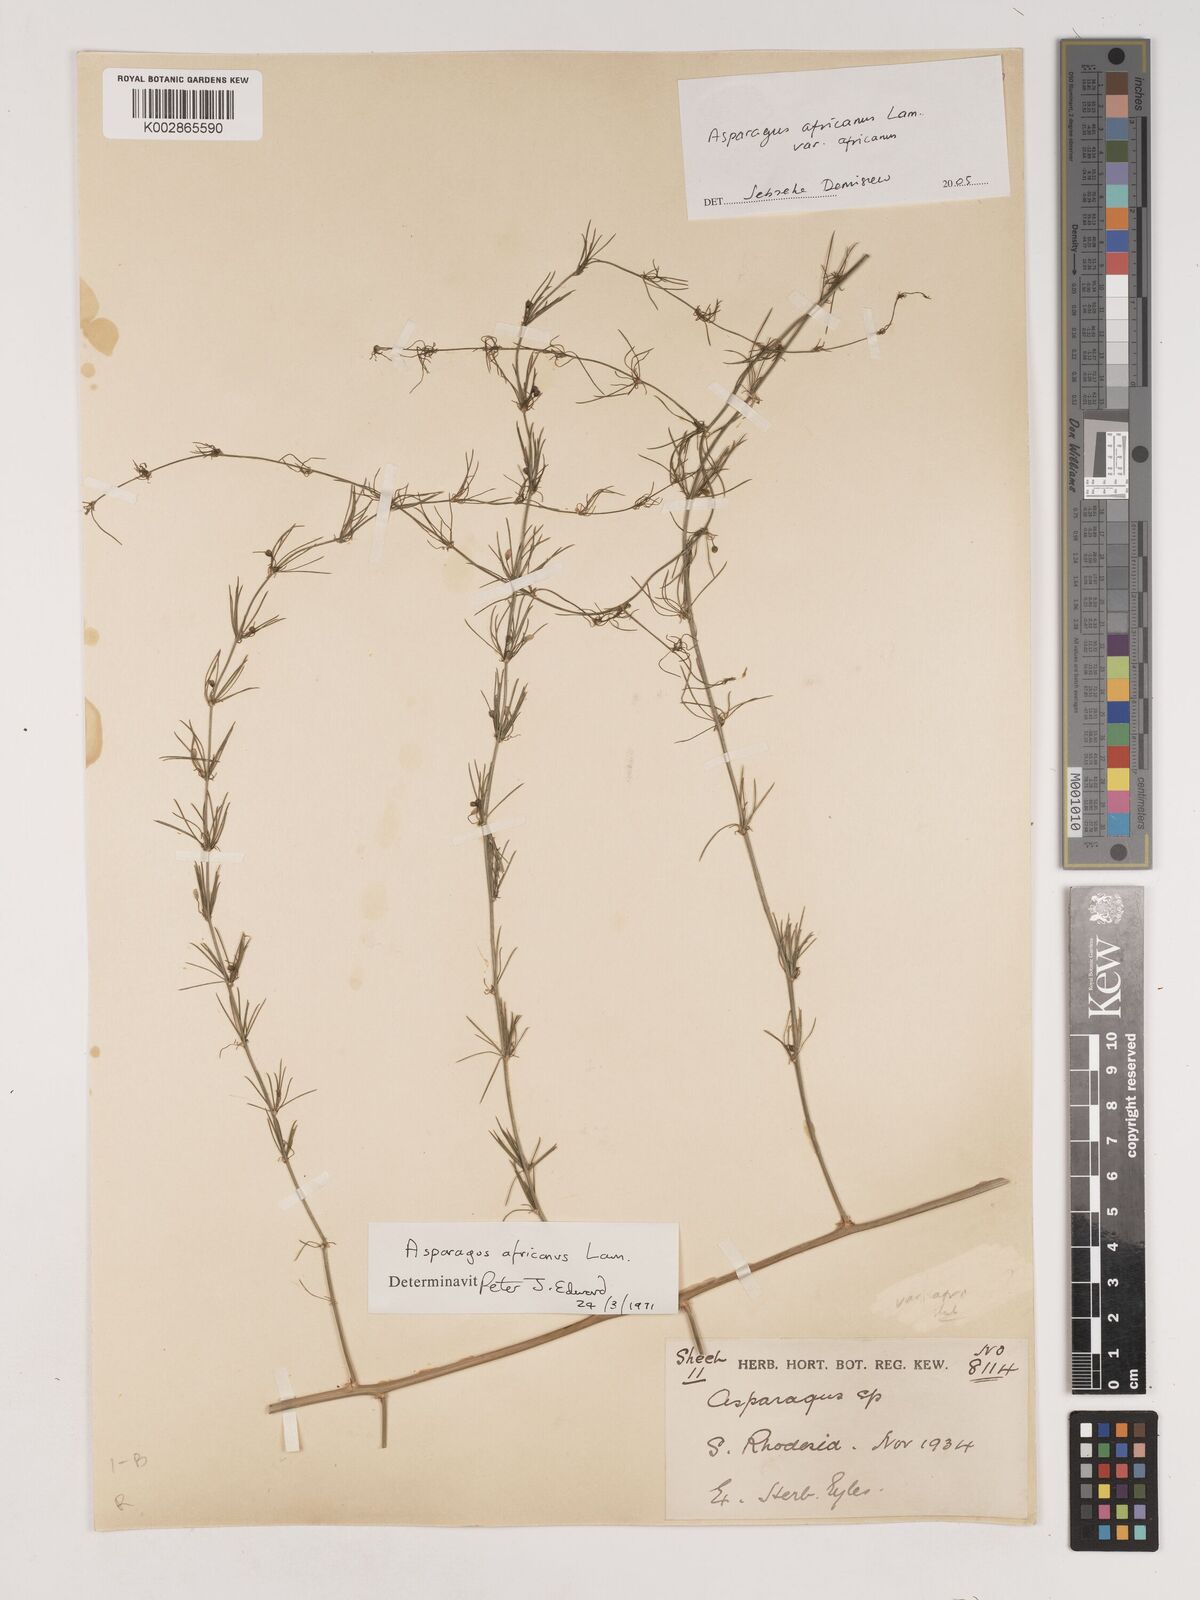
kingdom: Plantae
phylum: Tracheophyta
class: Liliopsida
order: Asparagales
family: Asparagaceae
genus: Asparagus
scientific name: Asparagus africanus
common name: Asparagus-fern
